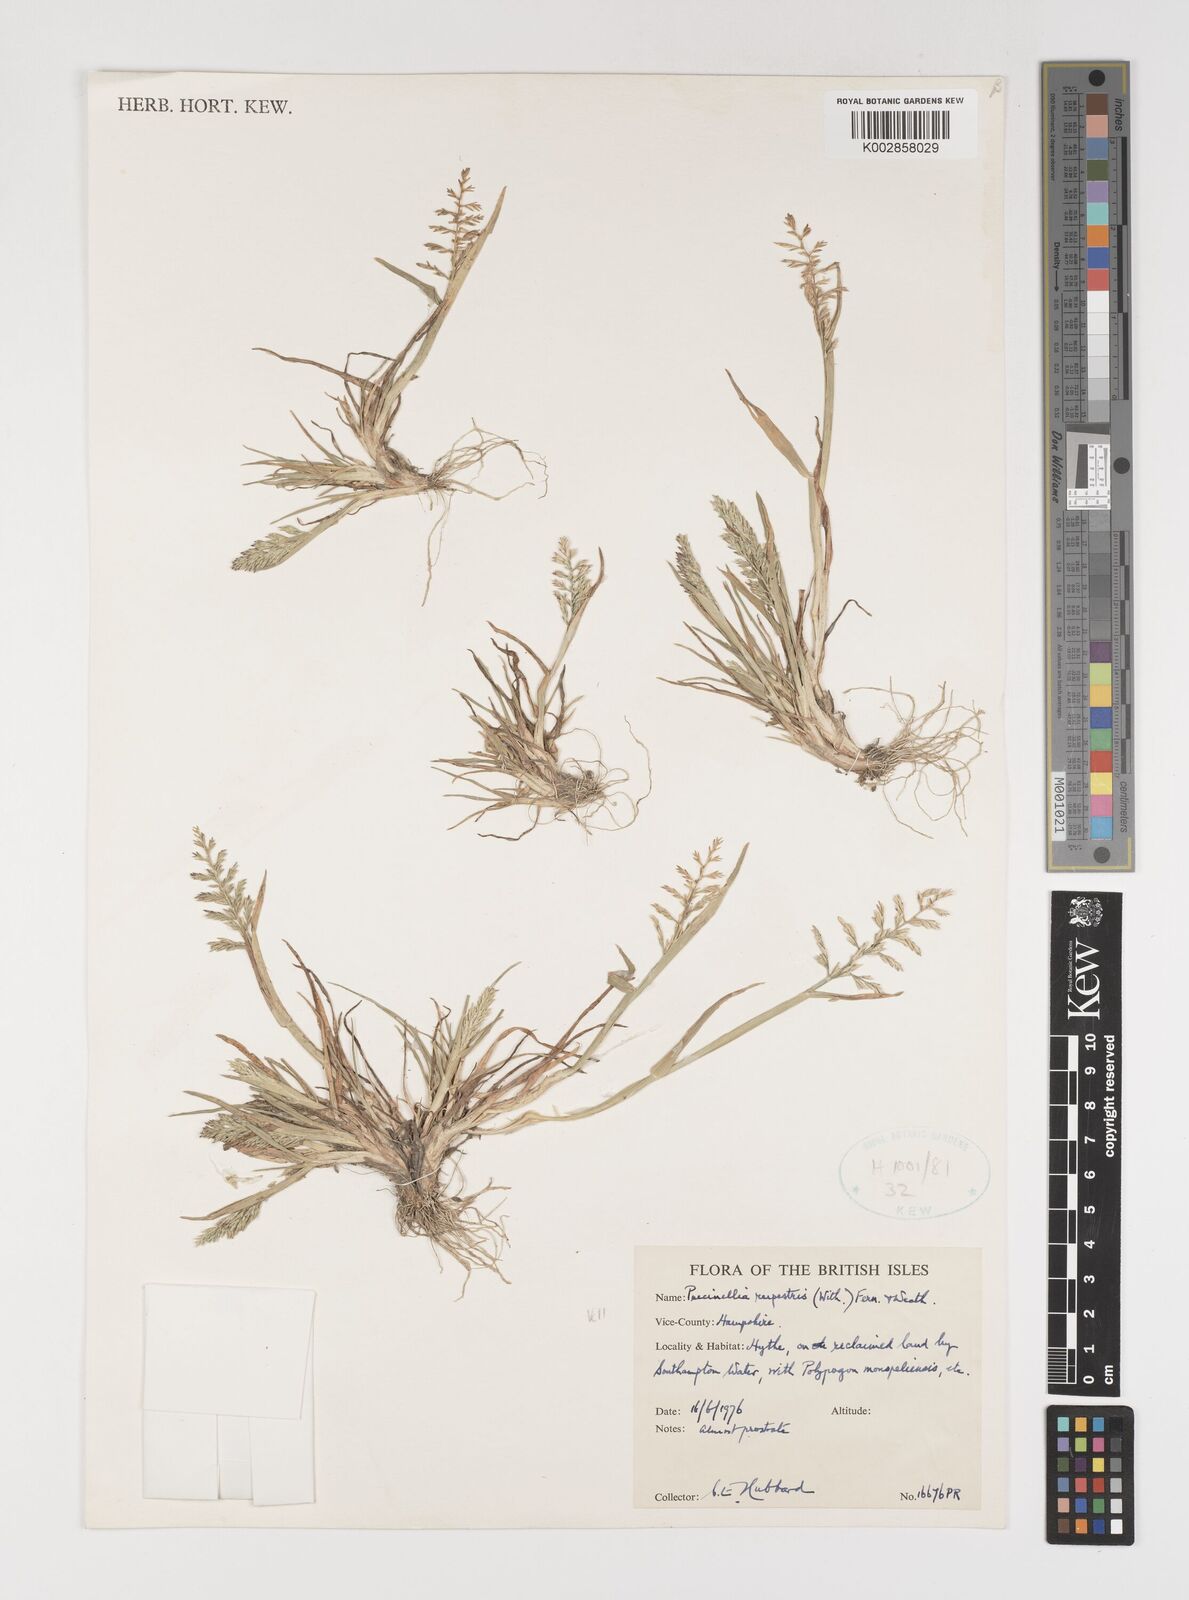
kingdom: Plantae
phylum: Tracheophyta
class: Liliopsida
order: Poales
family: Poaceae
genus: Puccinellia
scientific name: Puccinellia rupestris
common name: Stiff saltmarsh-grass
